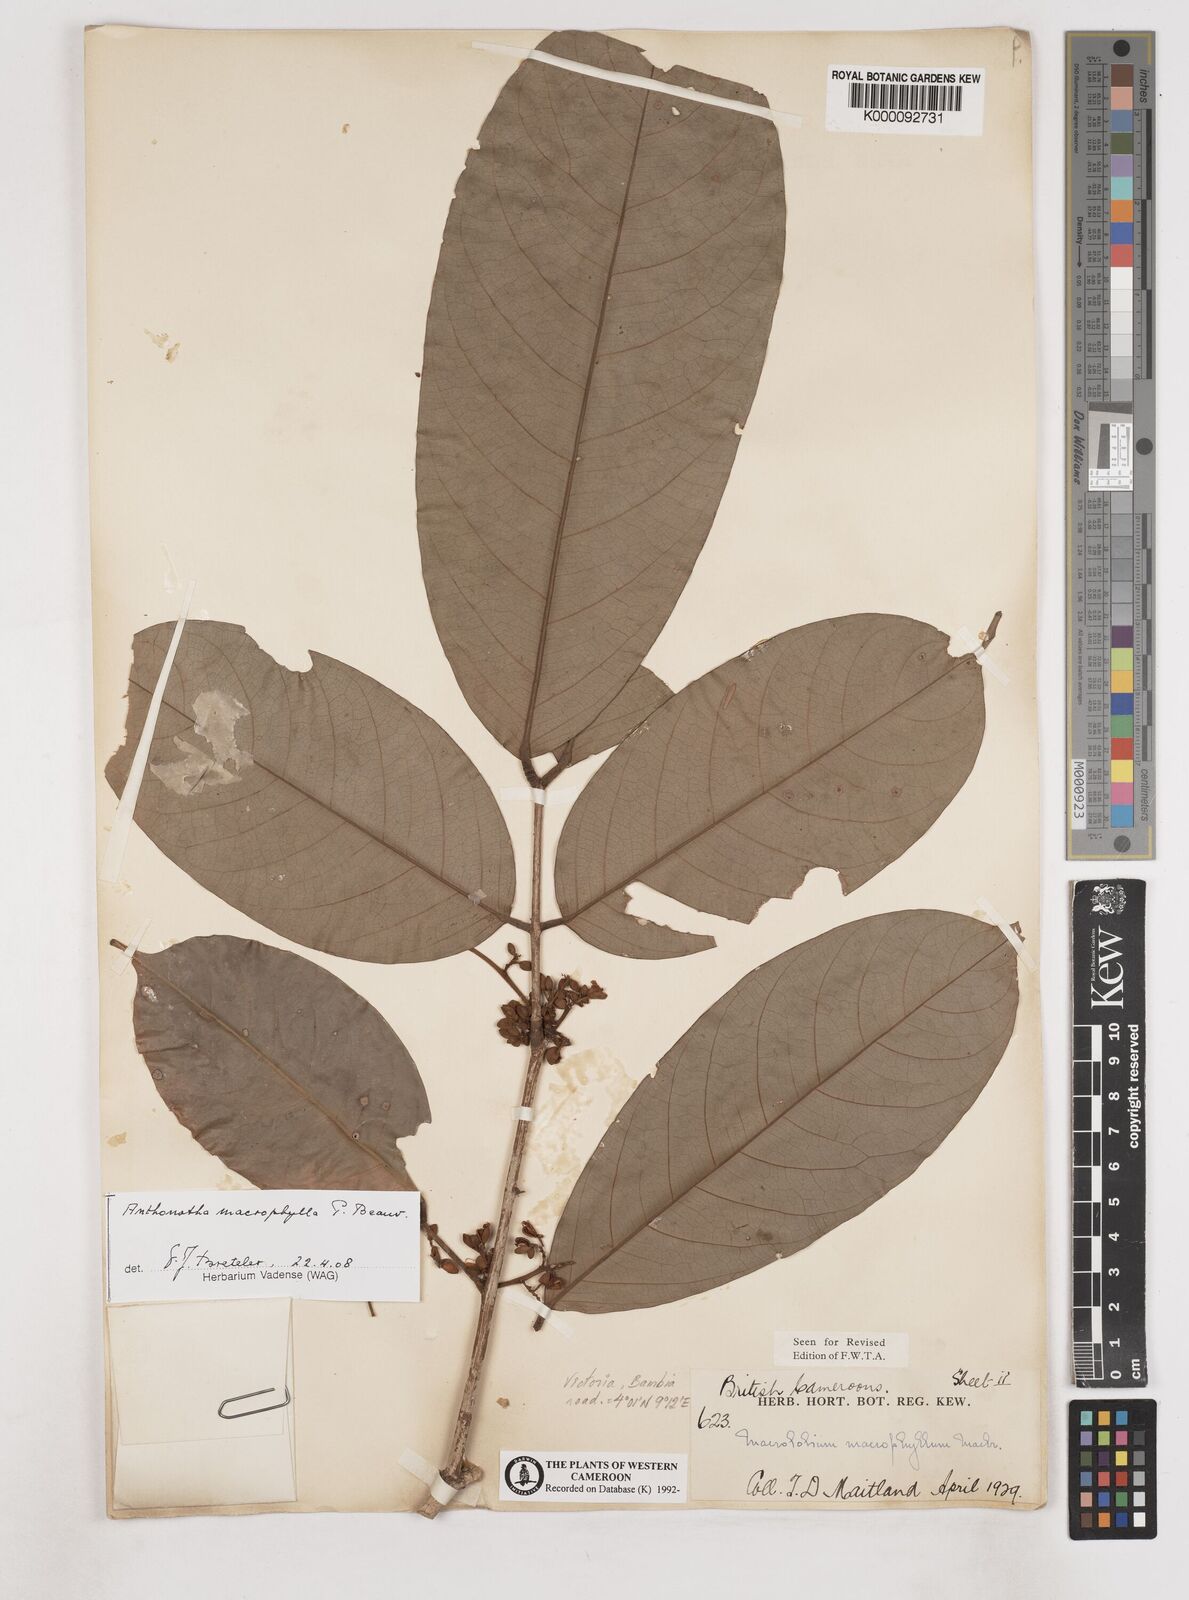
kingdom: Plantae
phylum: Tracheophyta
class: Magnoliopsida
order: Fabales
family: Fabaceae
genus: Anthonotha
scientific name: Anthonotha macrophylla
